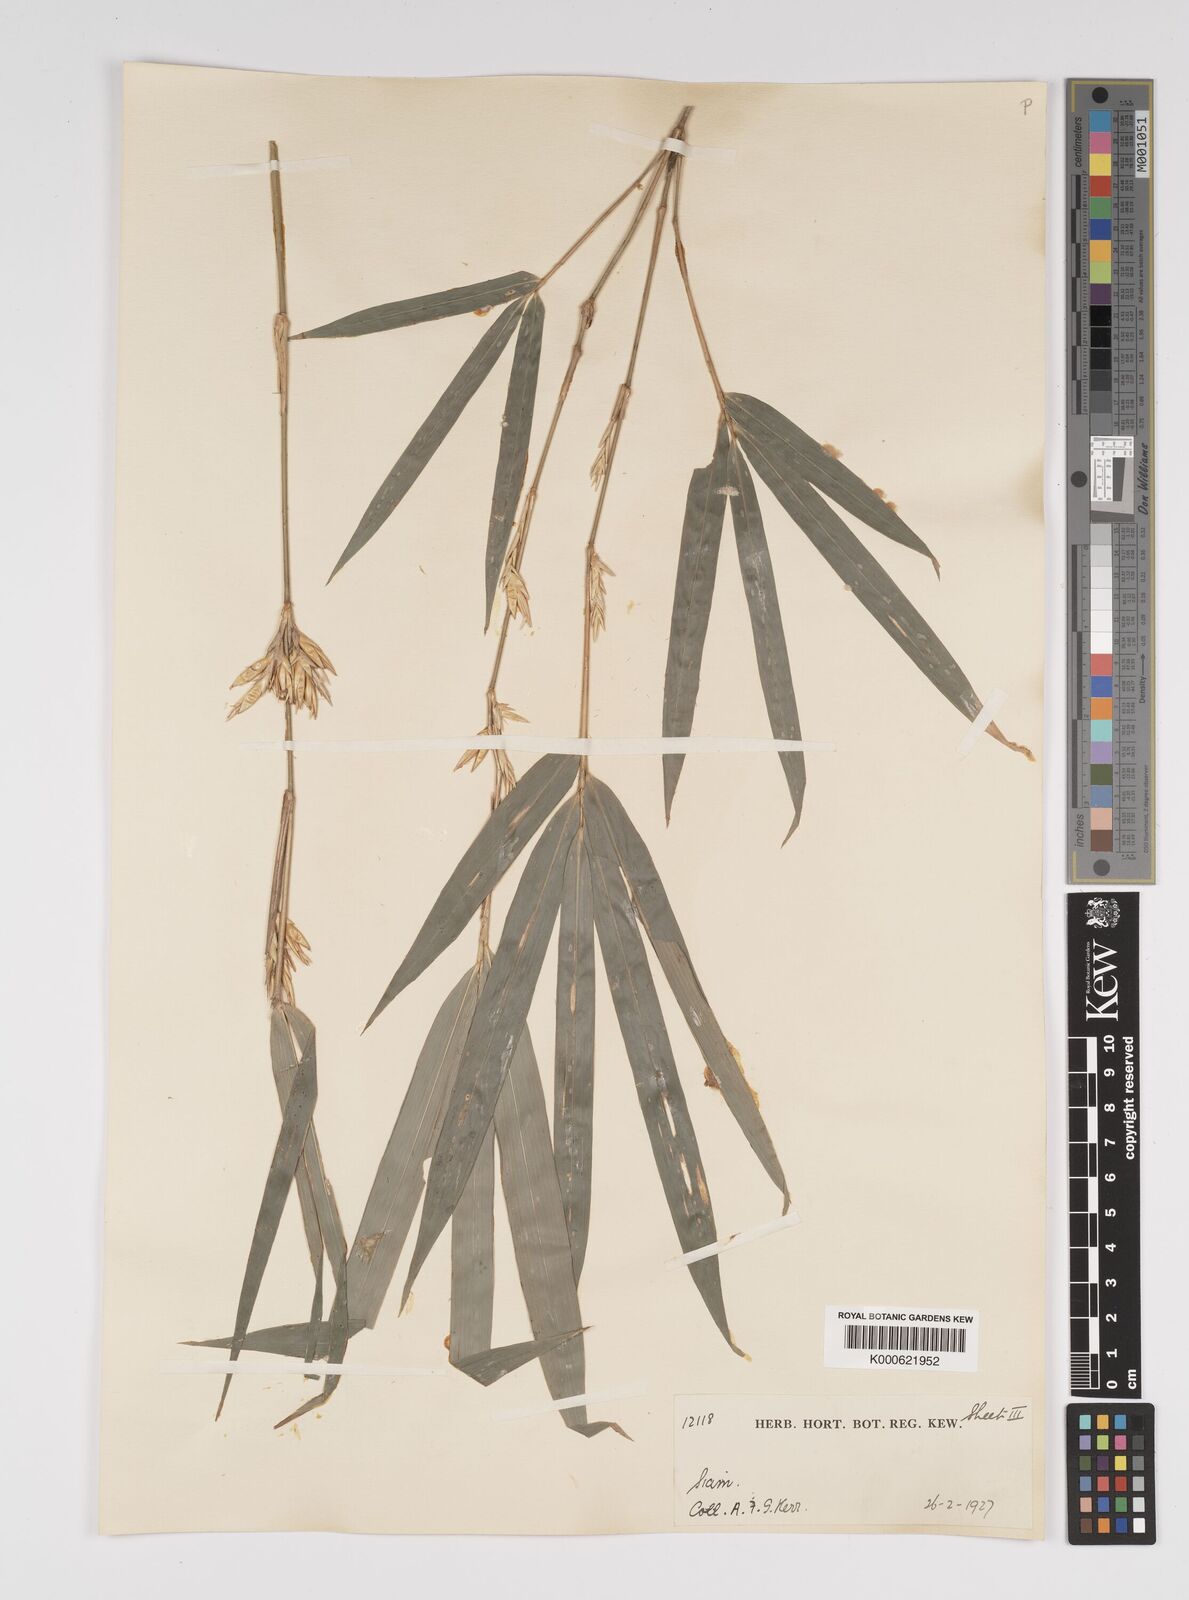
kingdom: Plantae
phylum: Tracheophyta
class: Liliopsida
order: Poales
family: Poaceae
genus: Bambusa
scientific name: Bambusa
